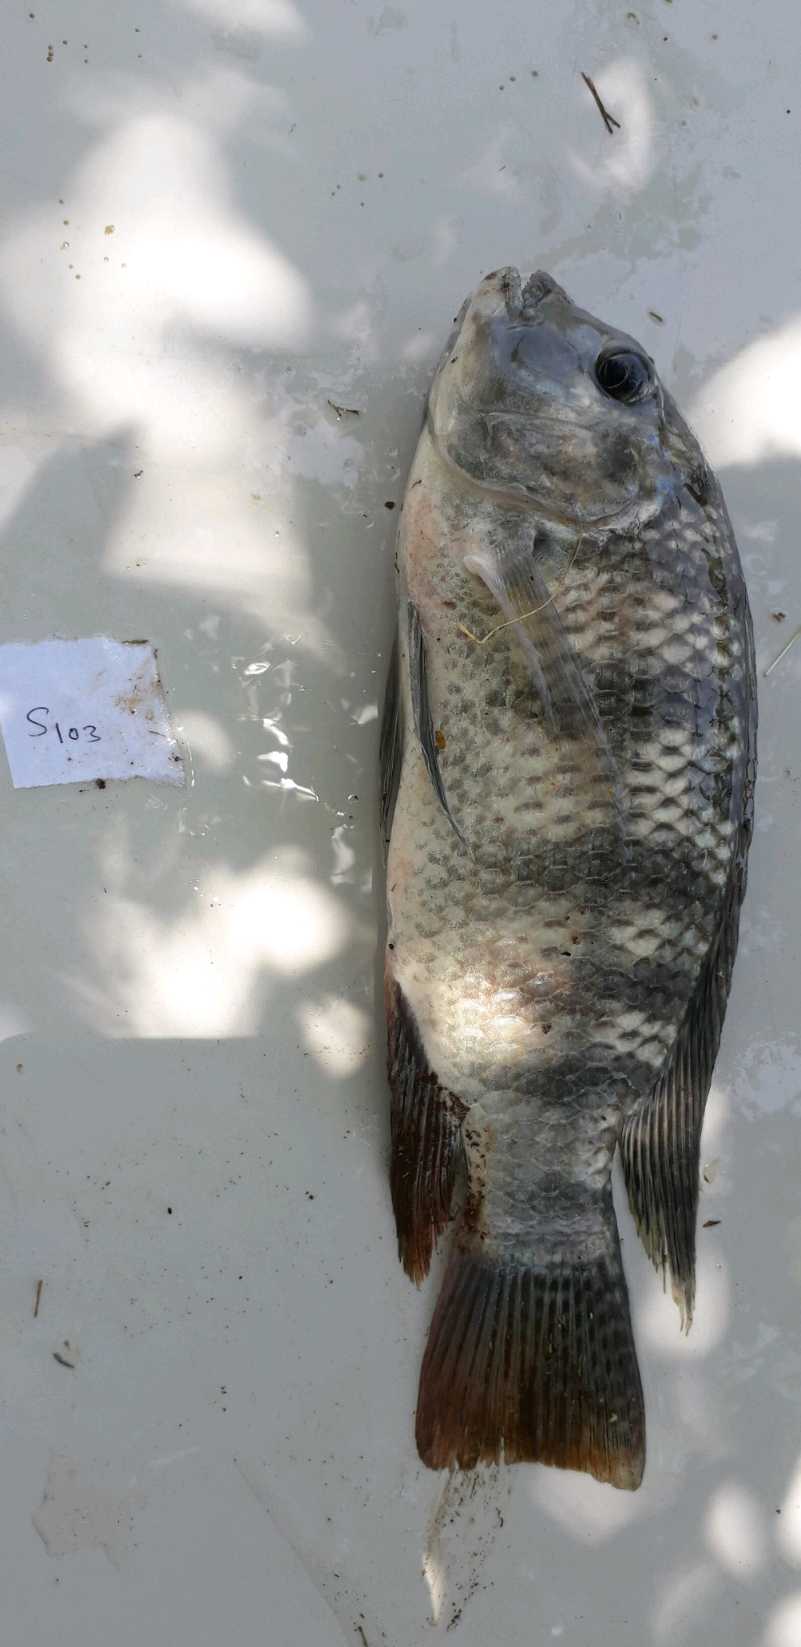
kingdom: Animalia
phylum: Chordata
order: Perciformes
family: Cichlidae
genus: Coptodon
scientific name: Coptodon rendalli
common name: Redbreast tilapia
